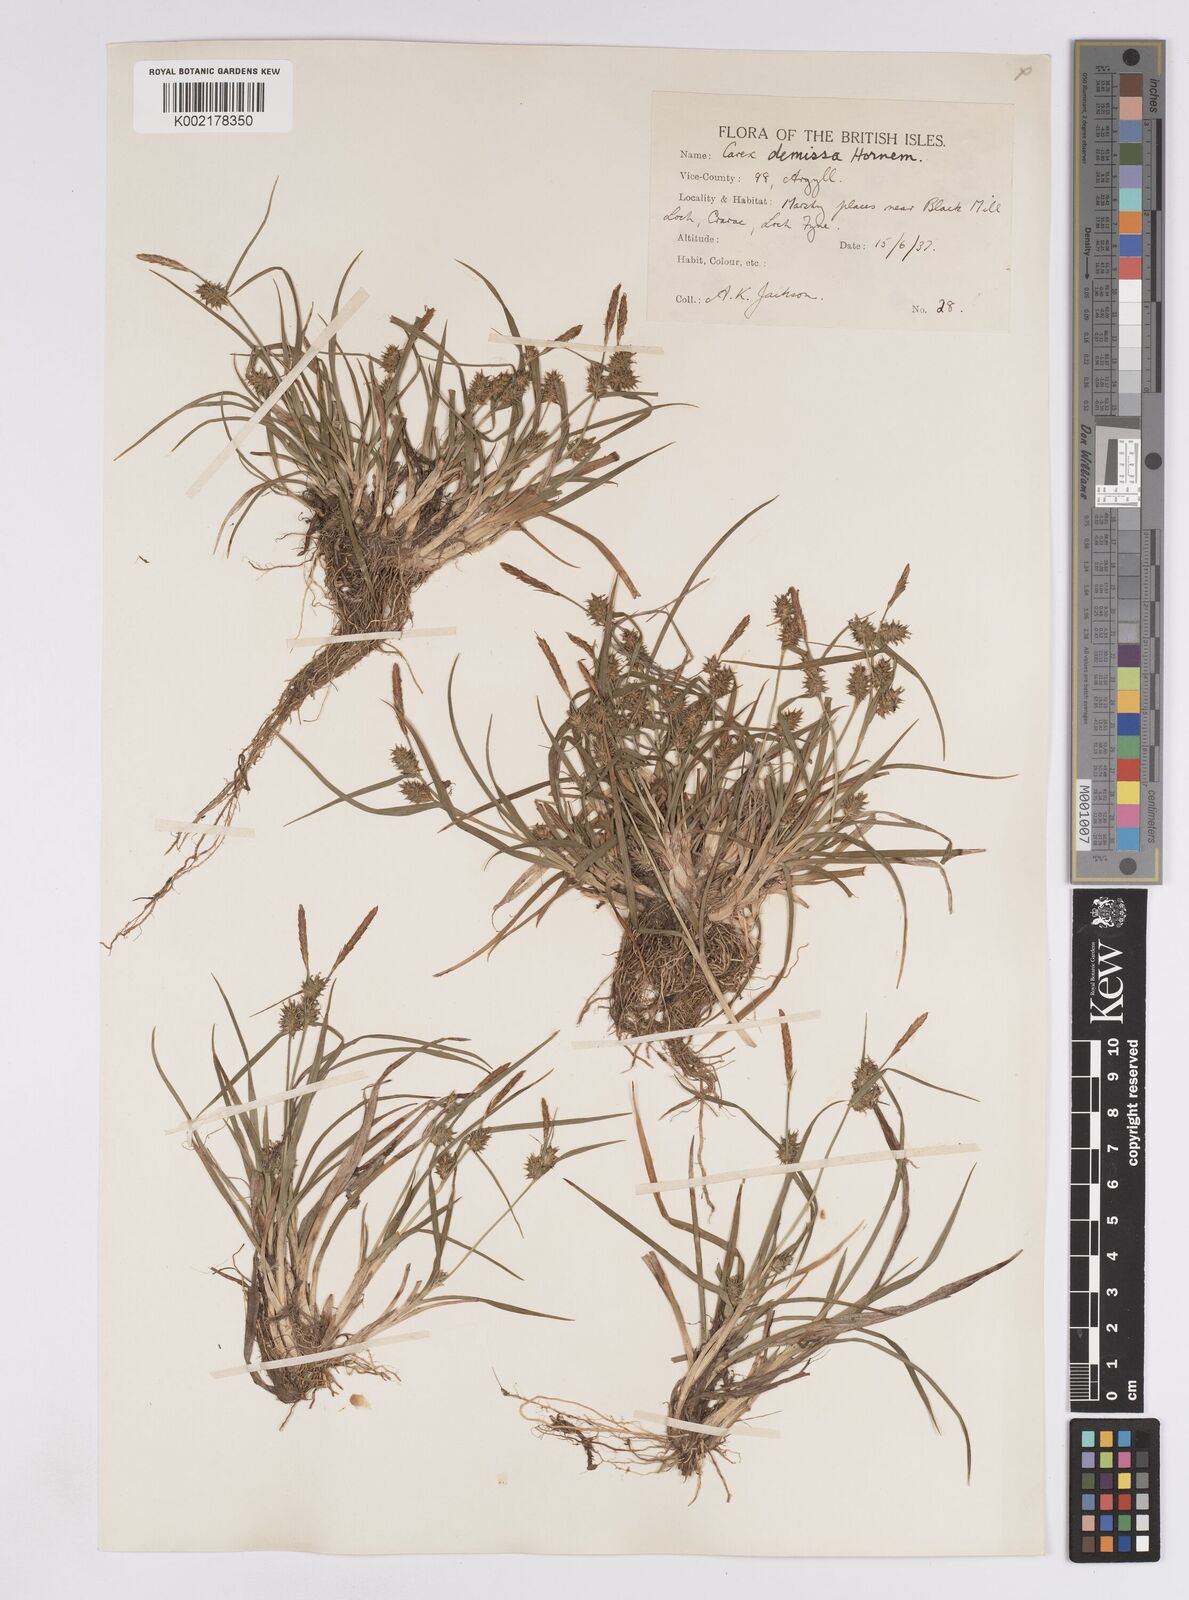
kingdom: Plantae
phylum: Tracheophyta
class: Liliopsida
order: Poales
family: Cyperaceae
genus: Carex
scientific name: Carex demissa
